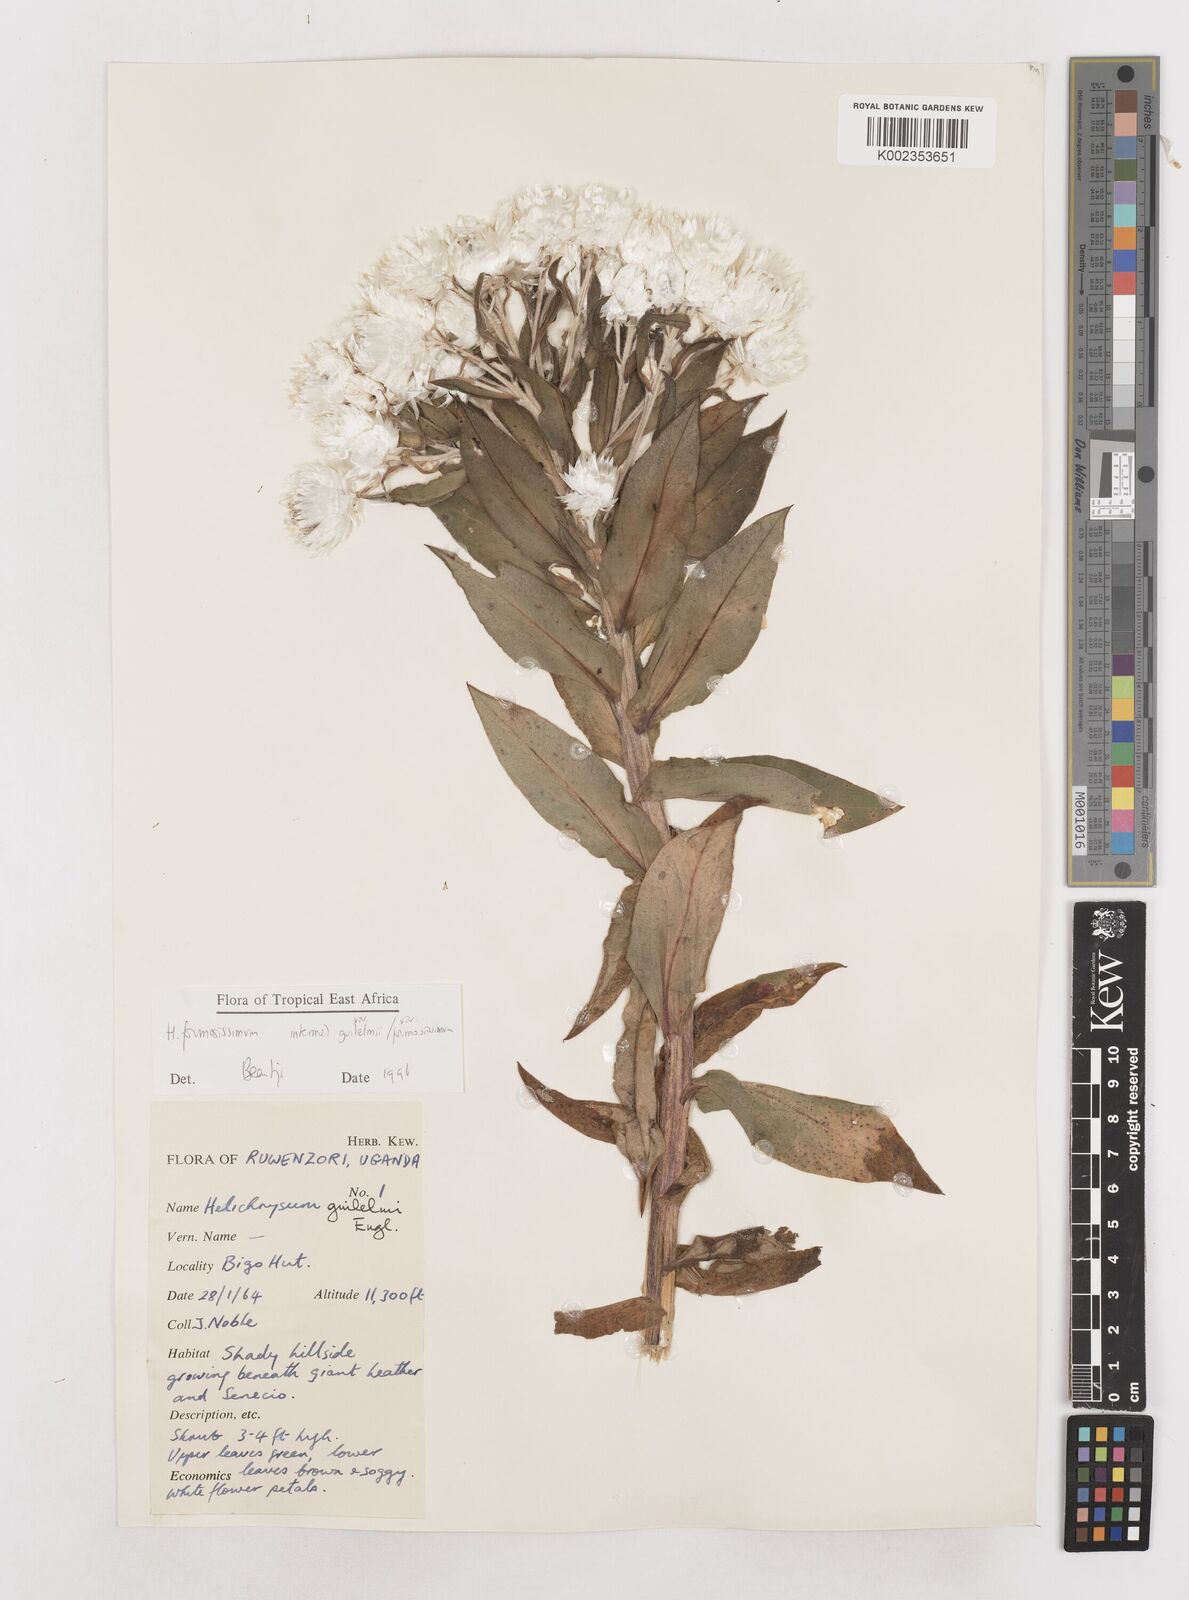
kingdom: Plantae
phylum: Tracheophyta
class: Magnoliopsida
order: Asterales
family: Asteraceae
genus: Helichrysum
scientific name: Helichrysum formosissimum
